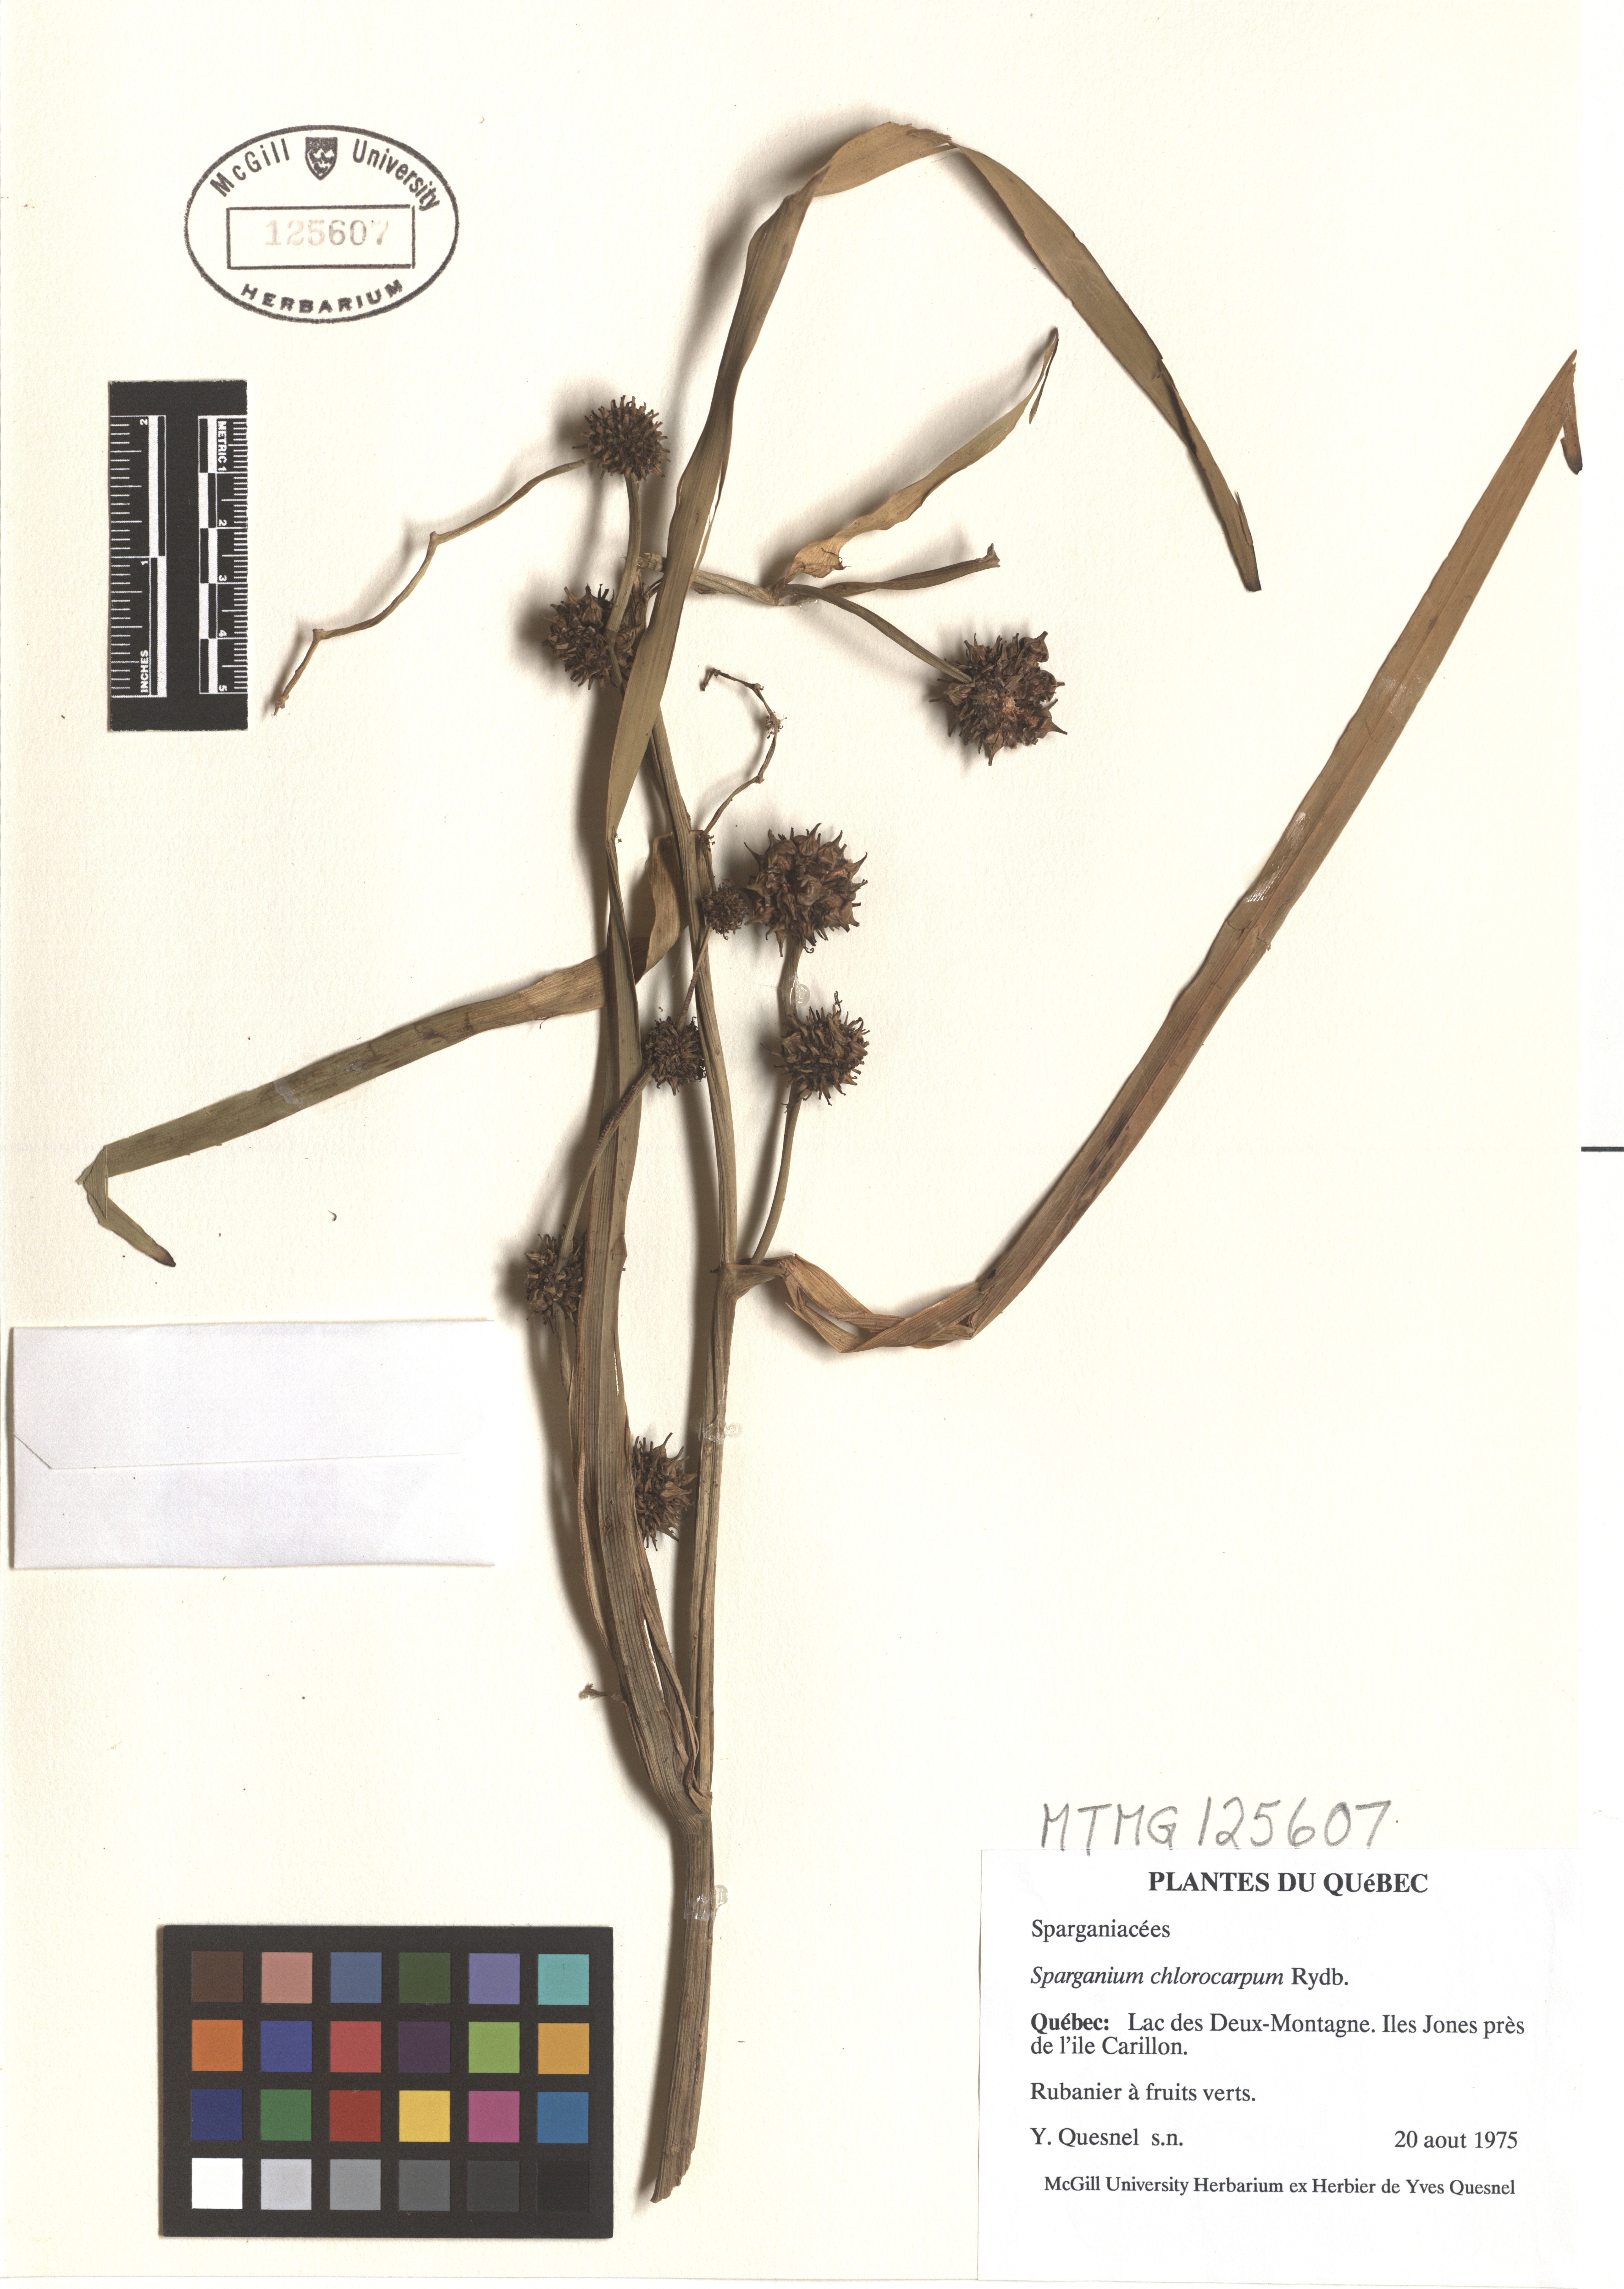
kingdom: Plantae
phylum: Tracheophyta
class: Liliopsida
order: Poales
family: Typhaceae
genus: Sparganium
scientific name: Sparganium emersum
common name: Unbranched bur-reed
